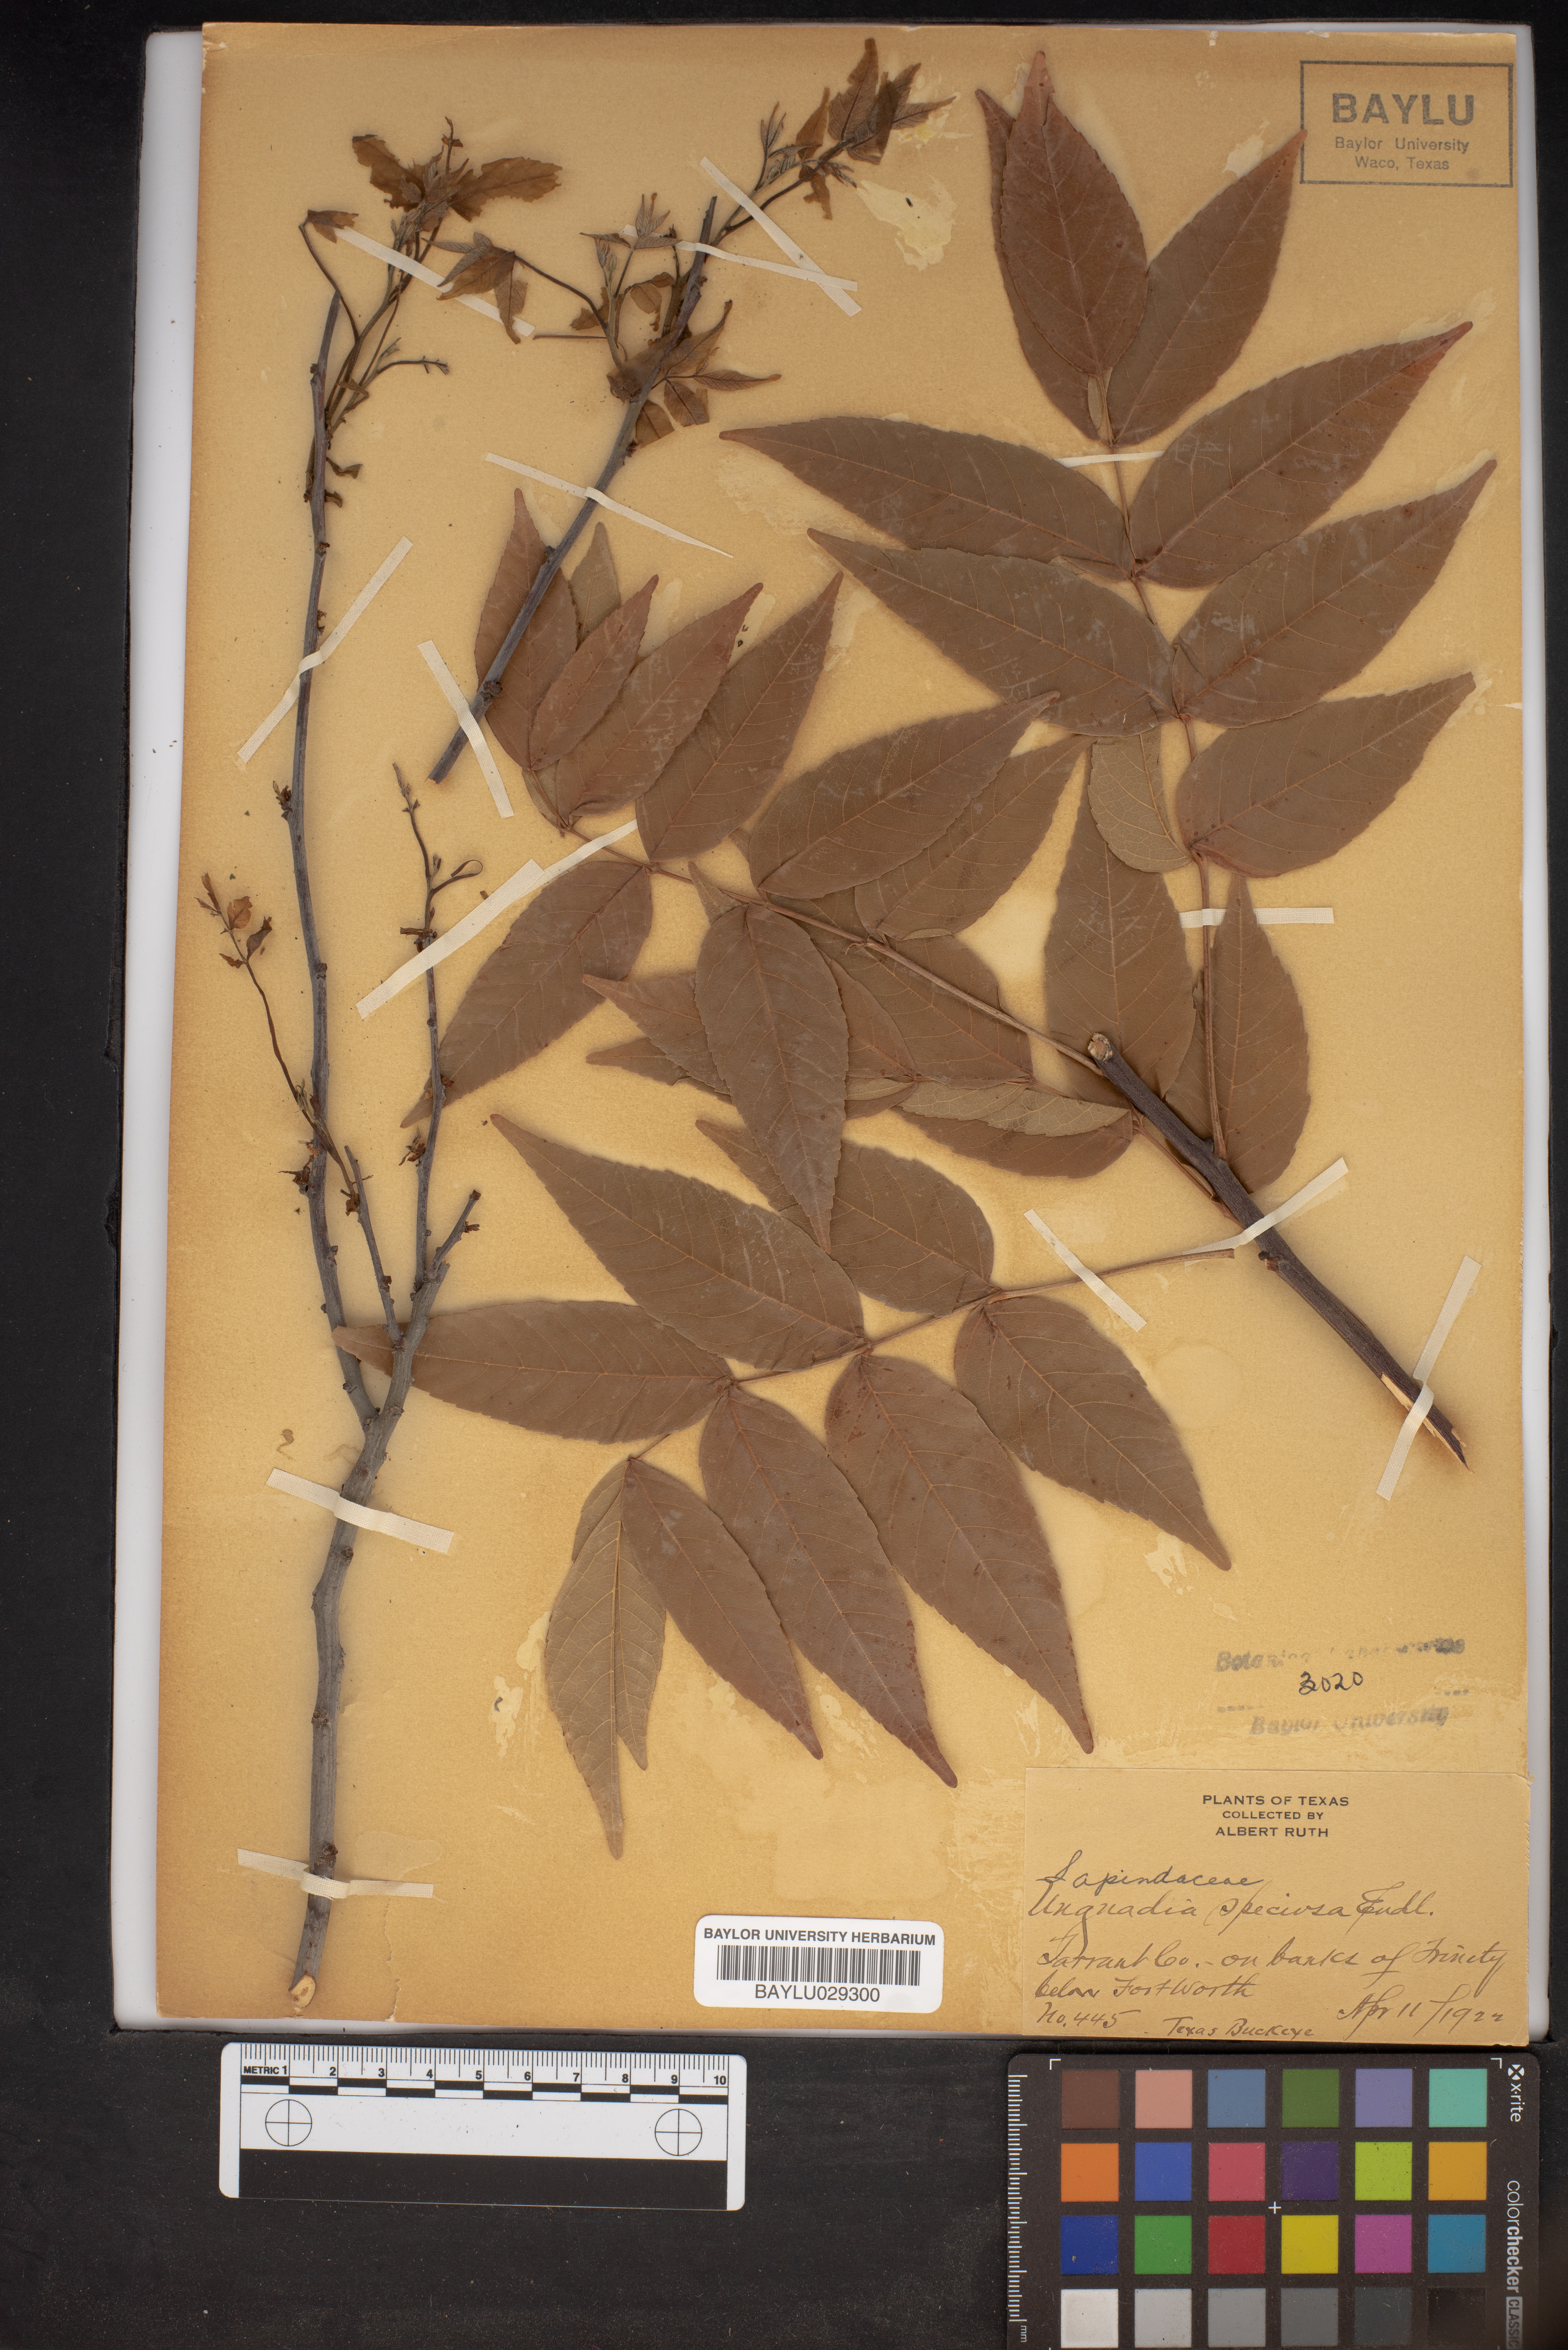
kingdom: Plantae
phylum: Tracheophyta
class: Magnoliopsida
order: Sapindales
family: Sapindaceae
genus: Ungnadia
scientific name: Ungnadia speciosa
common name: Texas-buckeye
